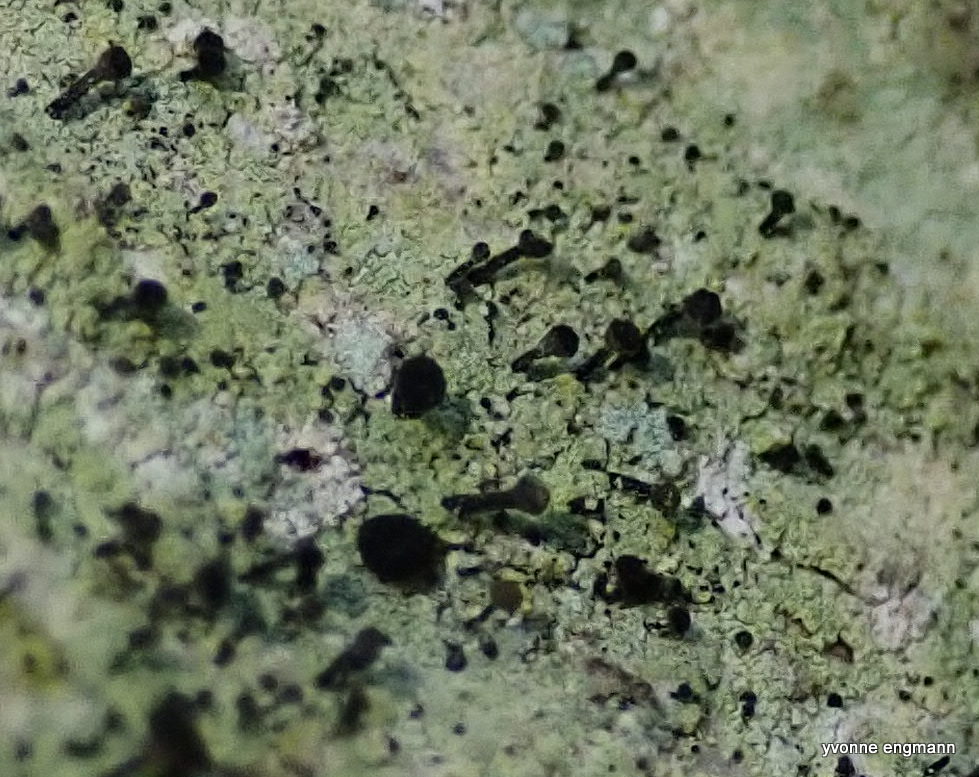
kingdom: Fungi
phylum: Ascomycota
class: Lecanoromycetes
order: Caliciales
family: Caliciaceae
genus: Calicium
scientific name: Calicium viride
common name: gulgrøn nålelav
